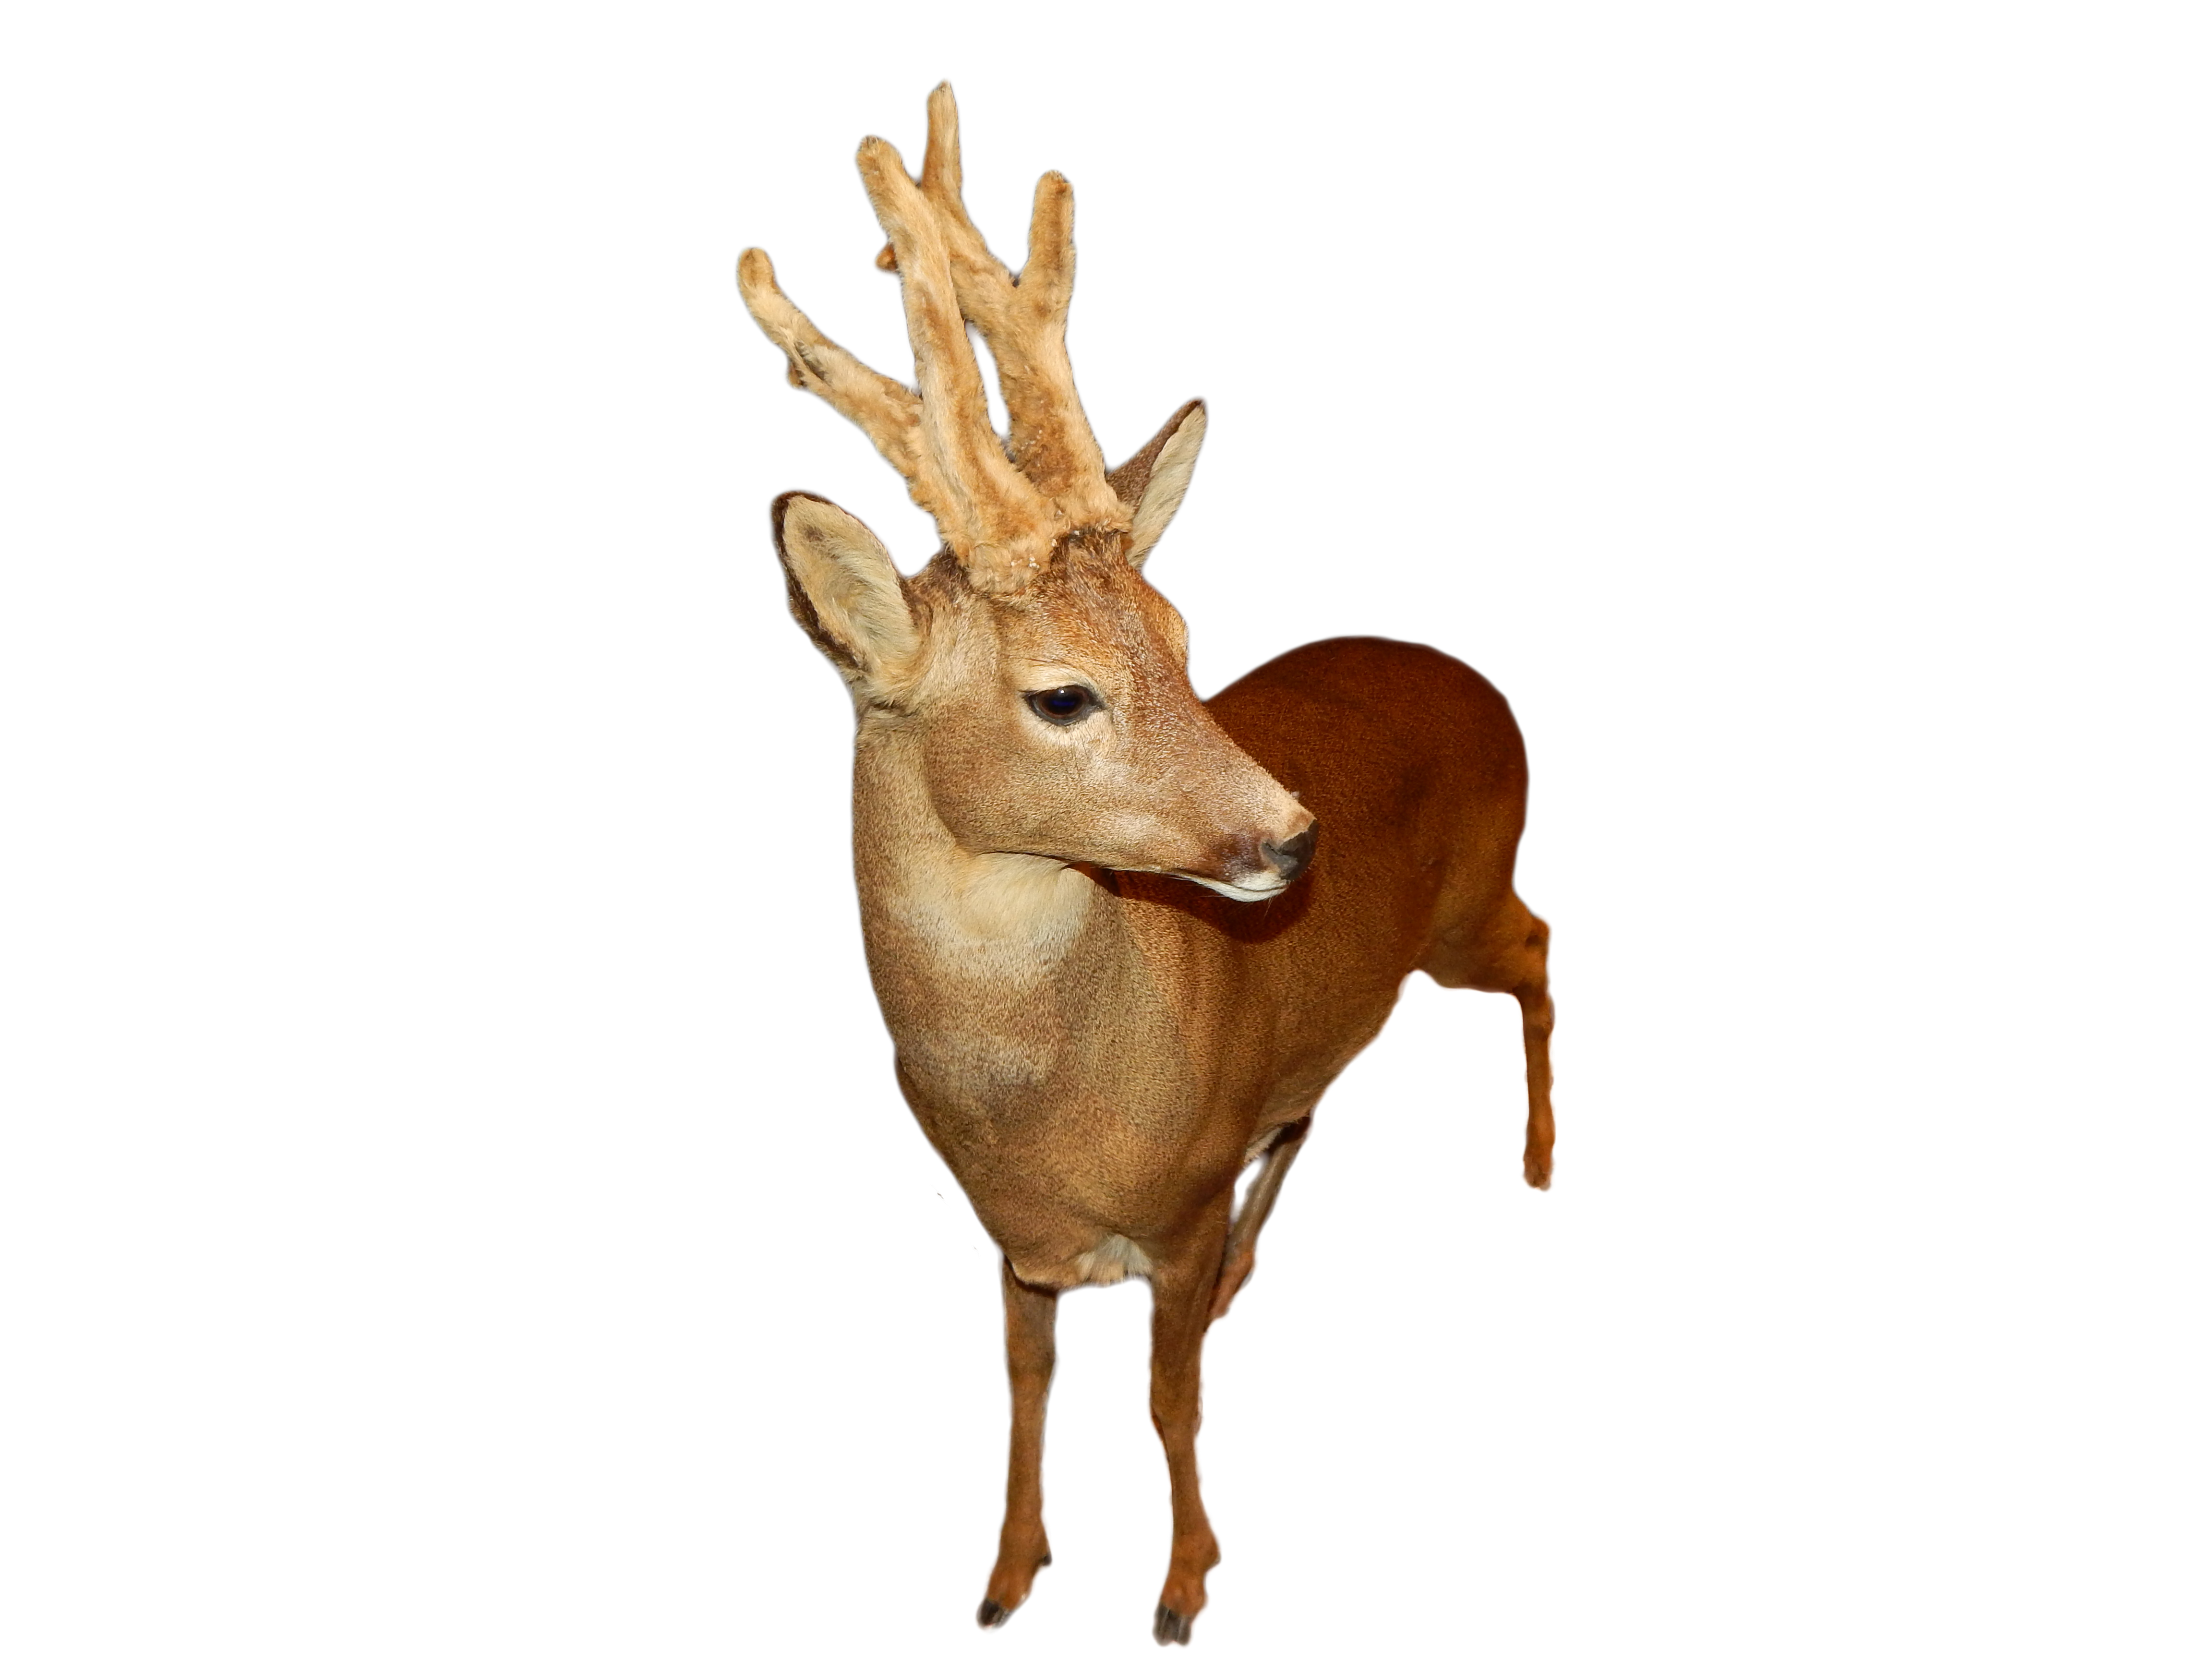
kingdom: Animalia
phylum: Chordata
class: Mammalia
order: Artiodactyla
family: Cervidae
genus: Capreolus
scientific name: Capreolus capreolus
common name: Western roe deer
